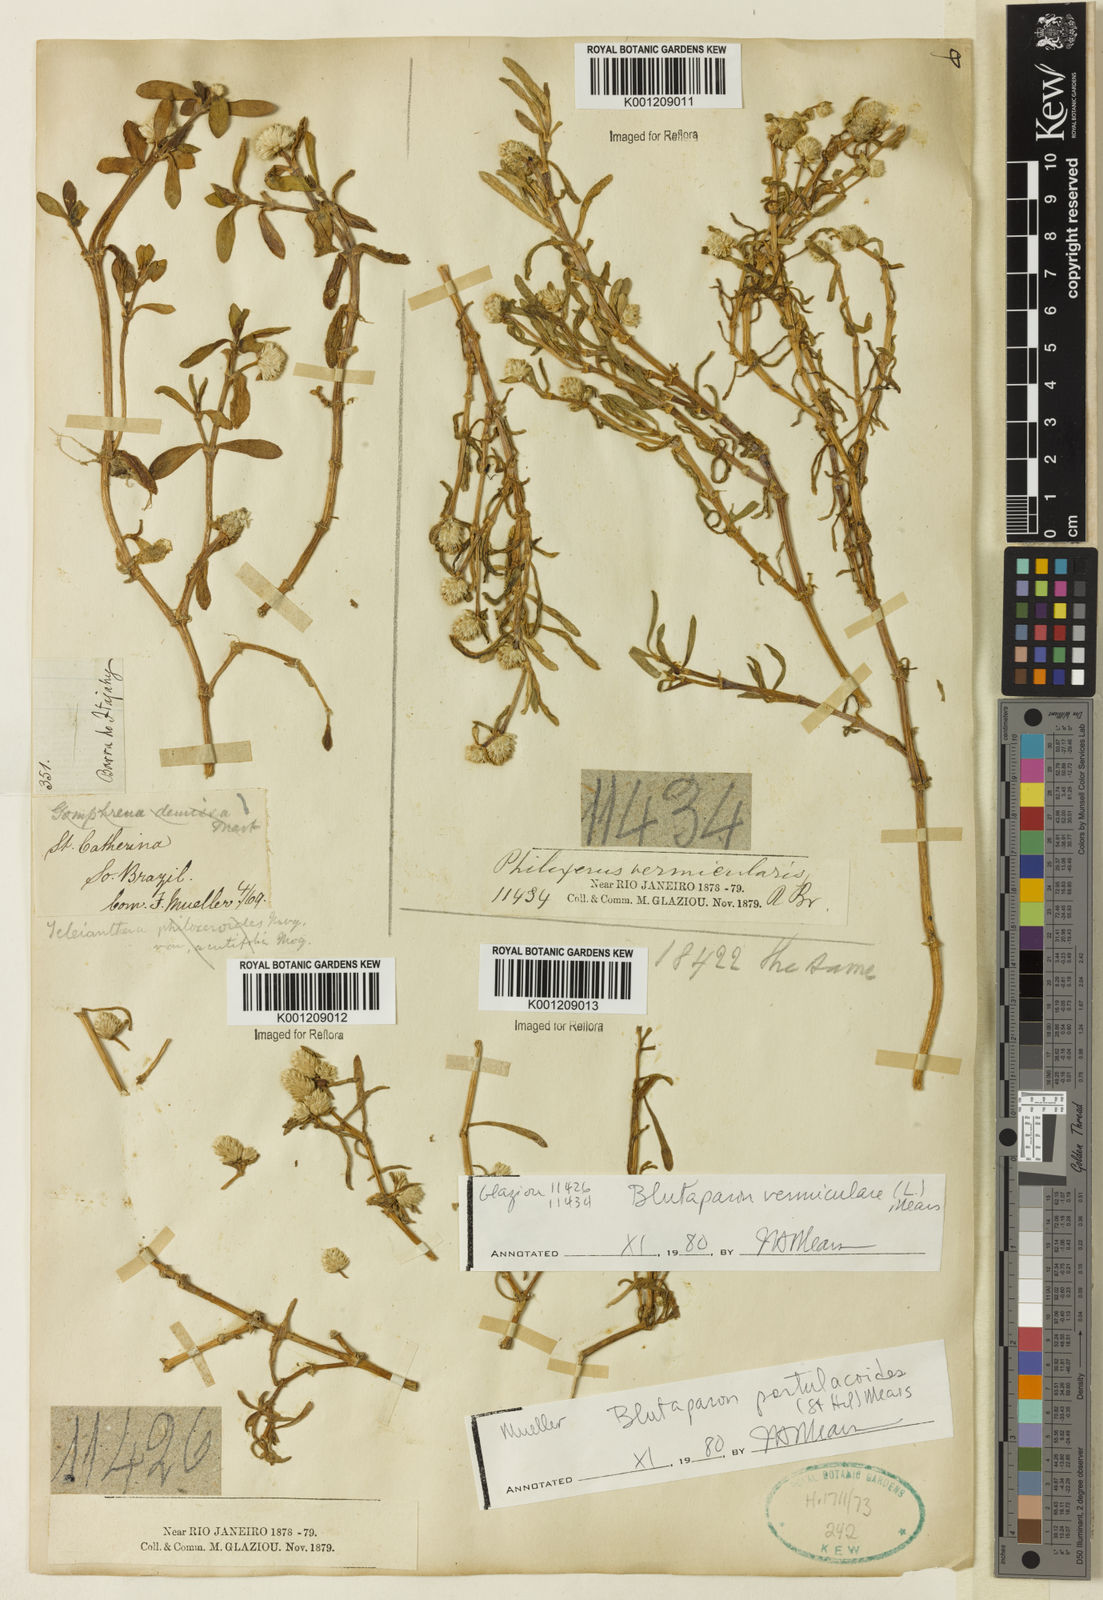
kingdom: Plantae
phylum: Tracheophyta
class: Magnoliopsida
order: Caryophyllales
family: Amaranthaceae
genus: Gomphrena
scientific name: Gomphrena portulacoides
